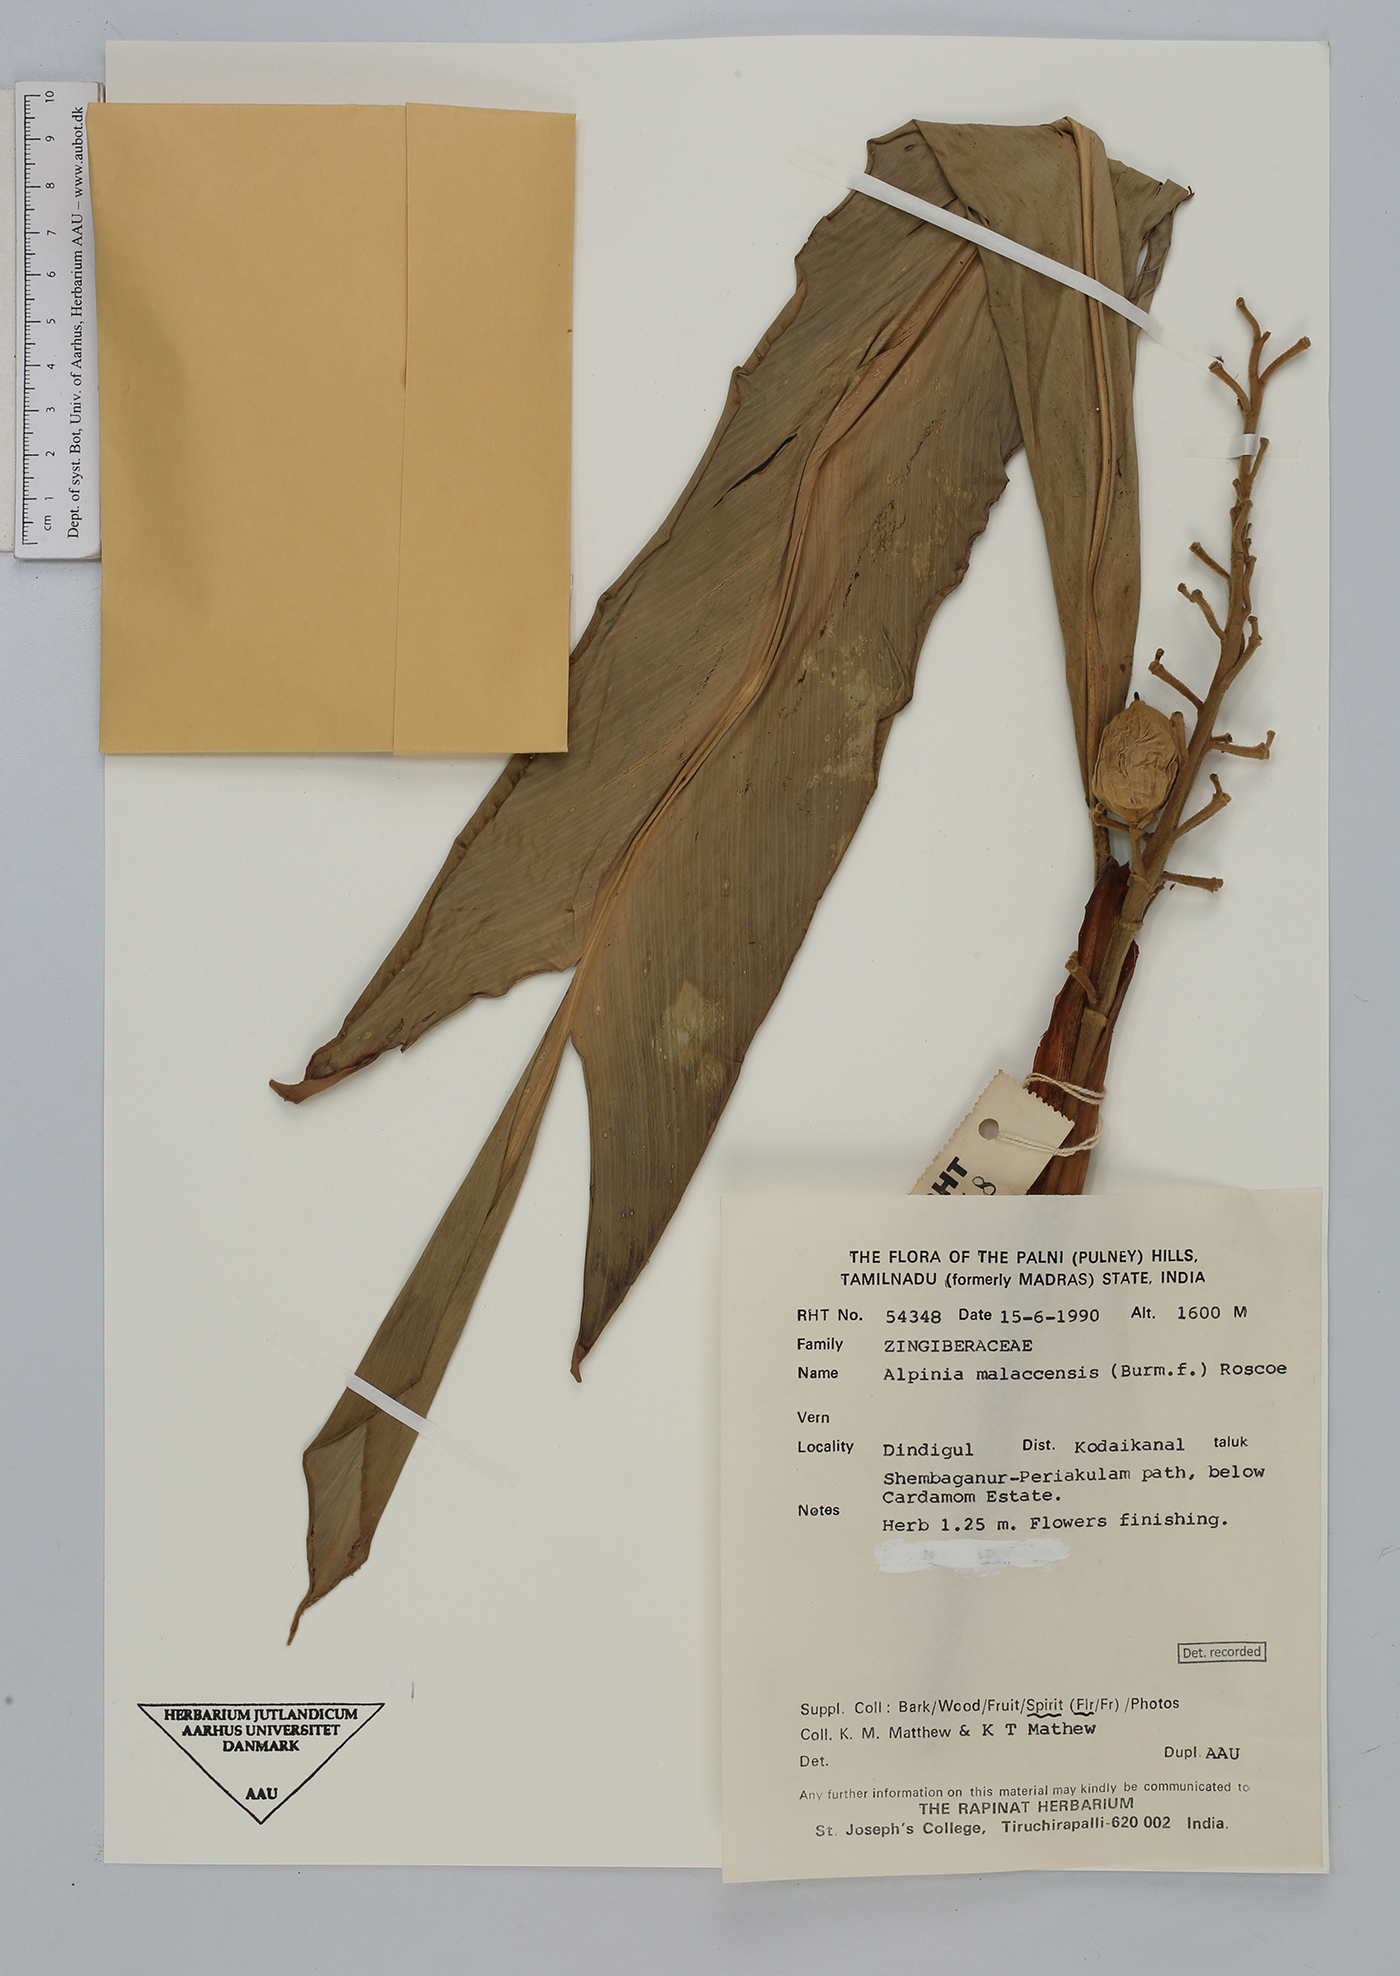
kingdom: Plantae
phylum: Tracheophyta
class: Liliopsida
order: Zingiberales
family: Zingiberaceae
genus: Alpinia
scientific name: Alpinia malaccensis
